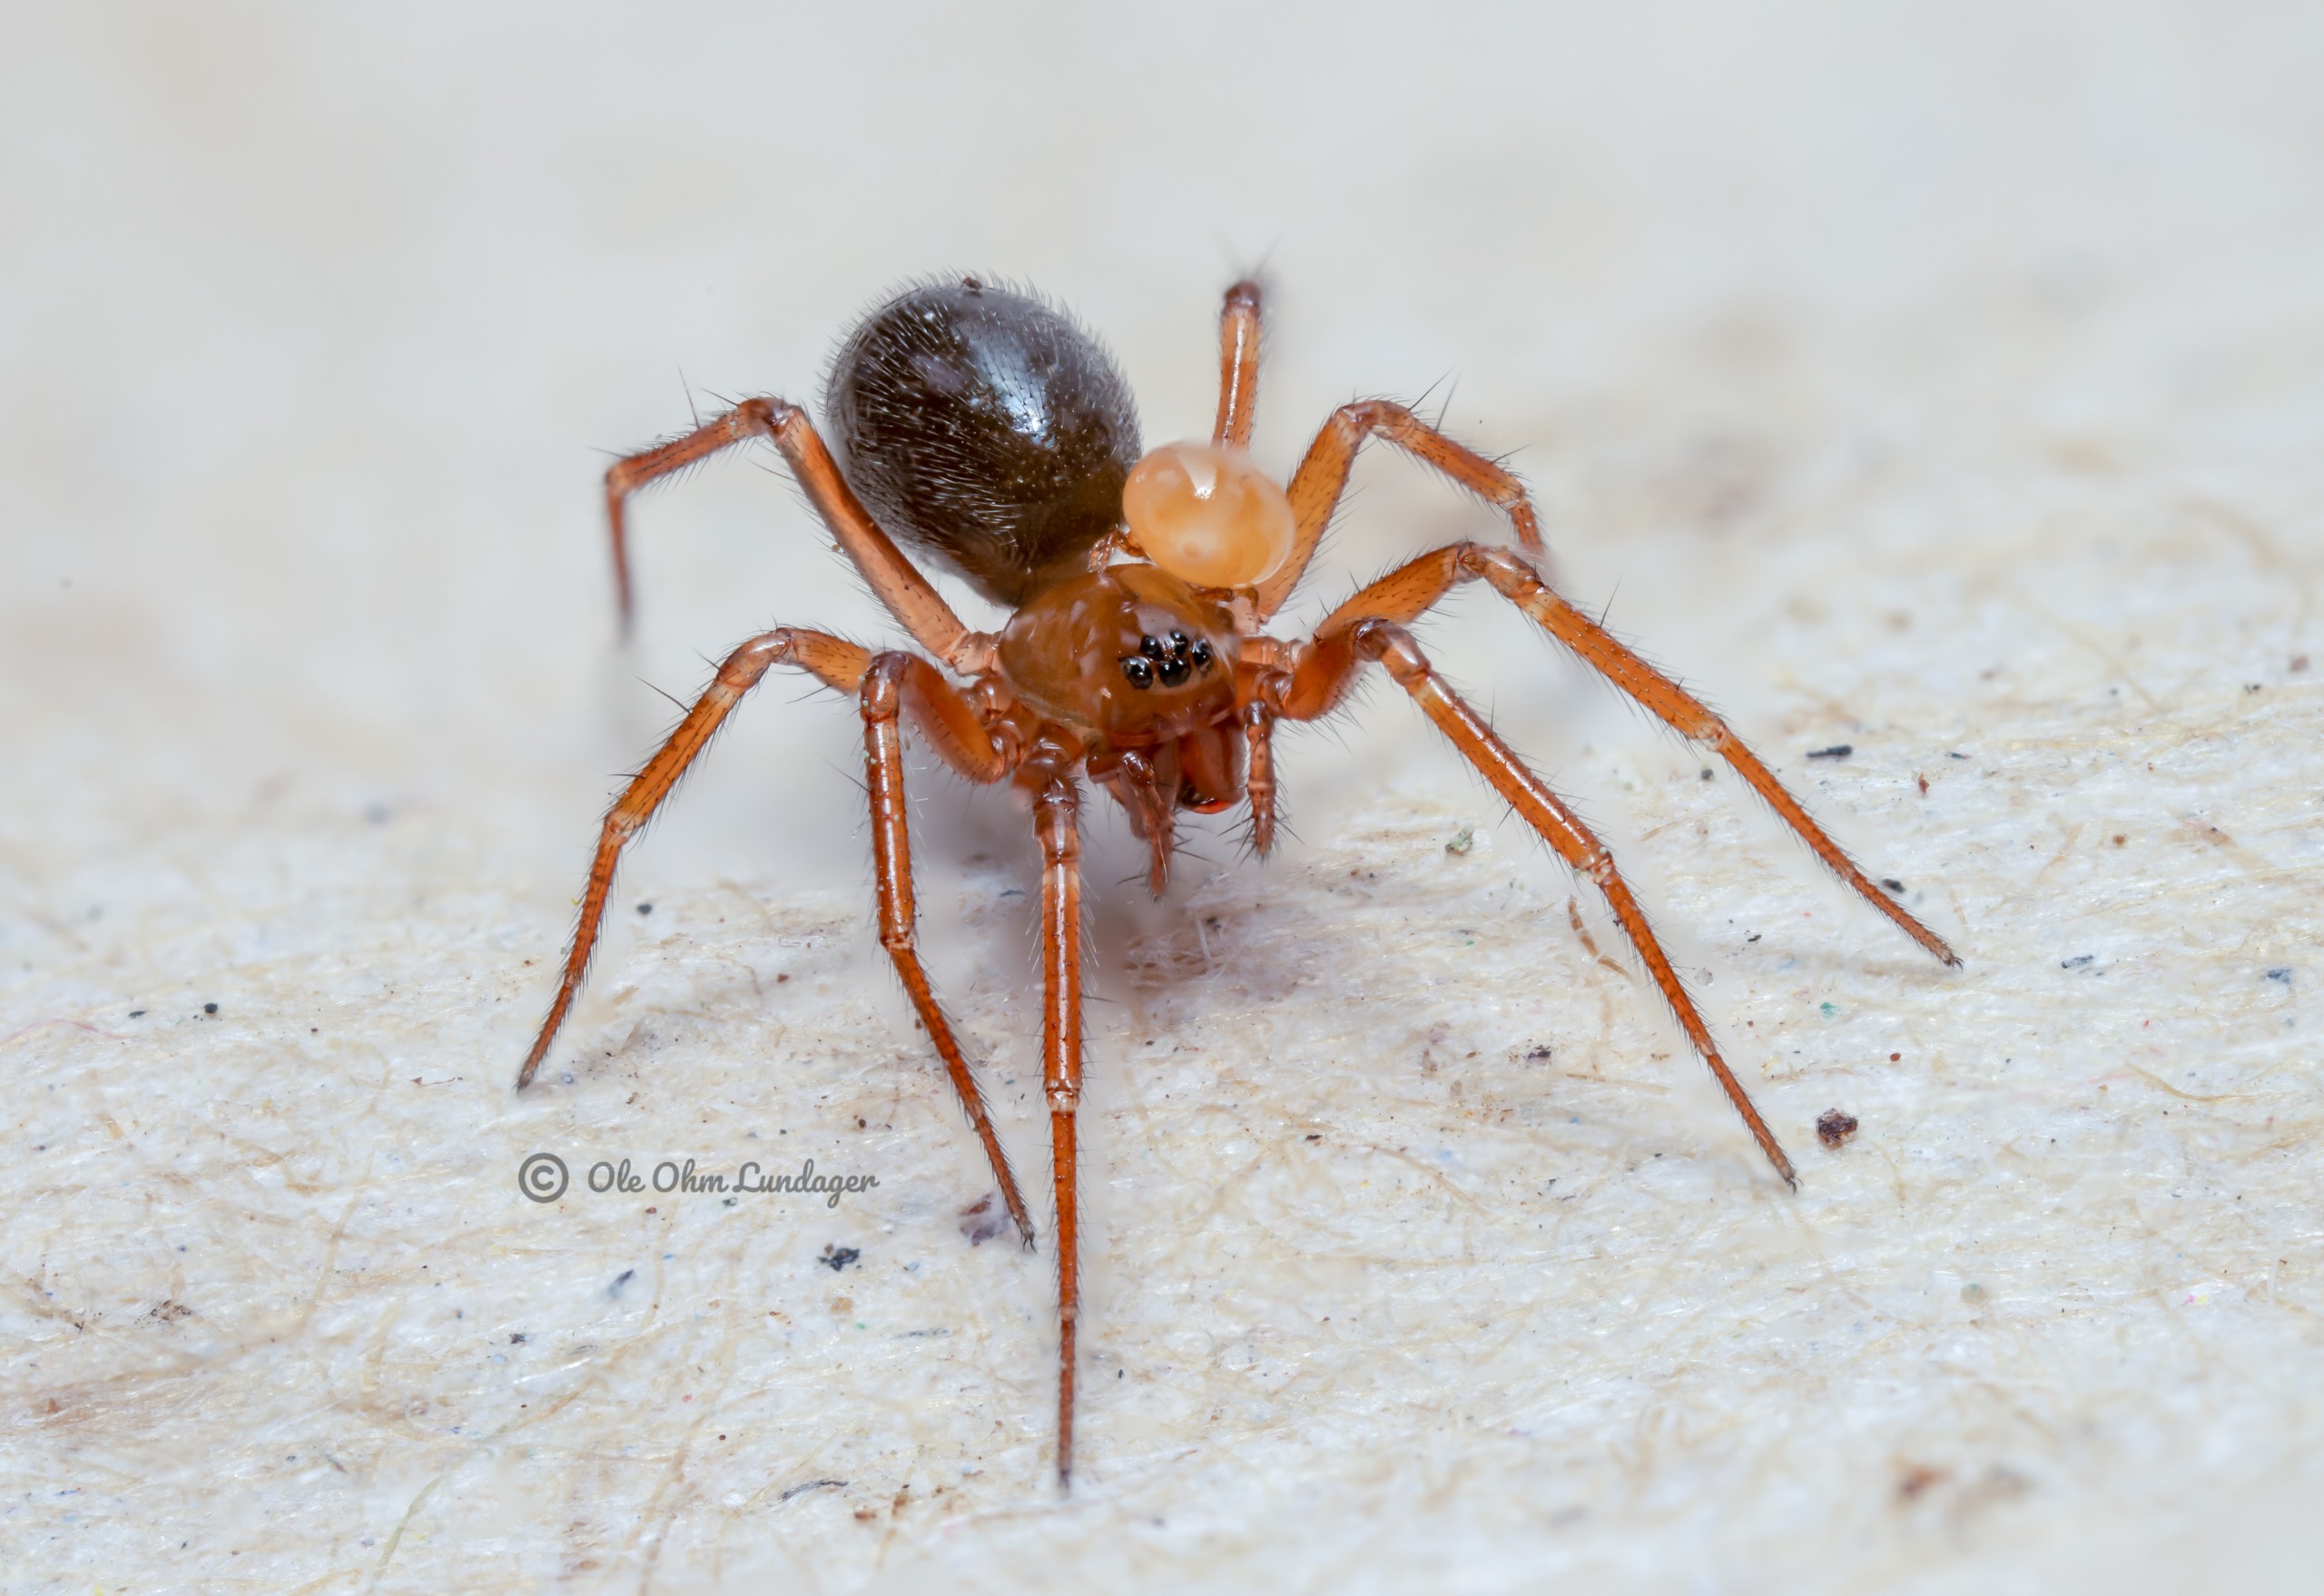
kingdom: Animalia
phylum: Arthropoda
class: Arachnida
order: Araneae
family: Linyphiidae
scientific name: Linyphiidae
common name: Tæppespindere
